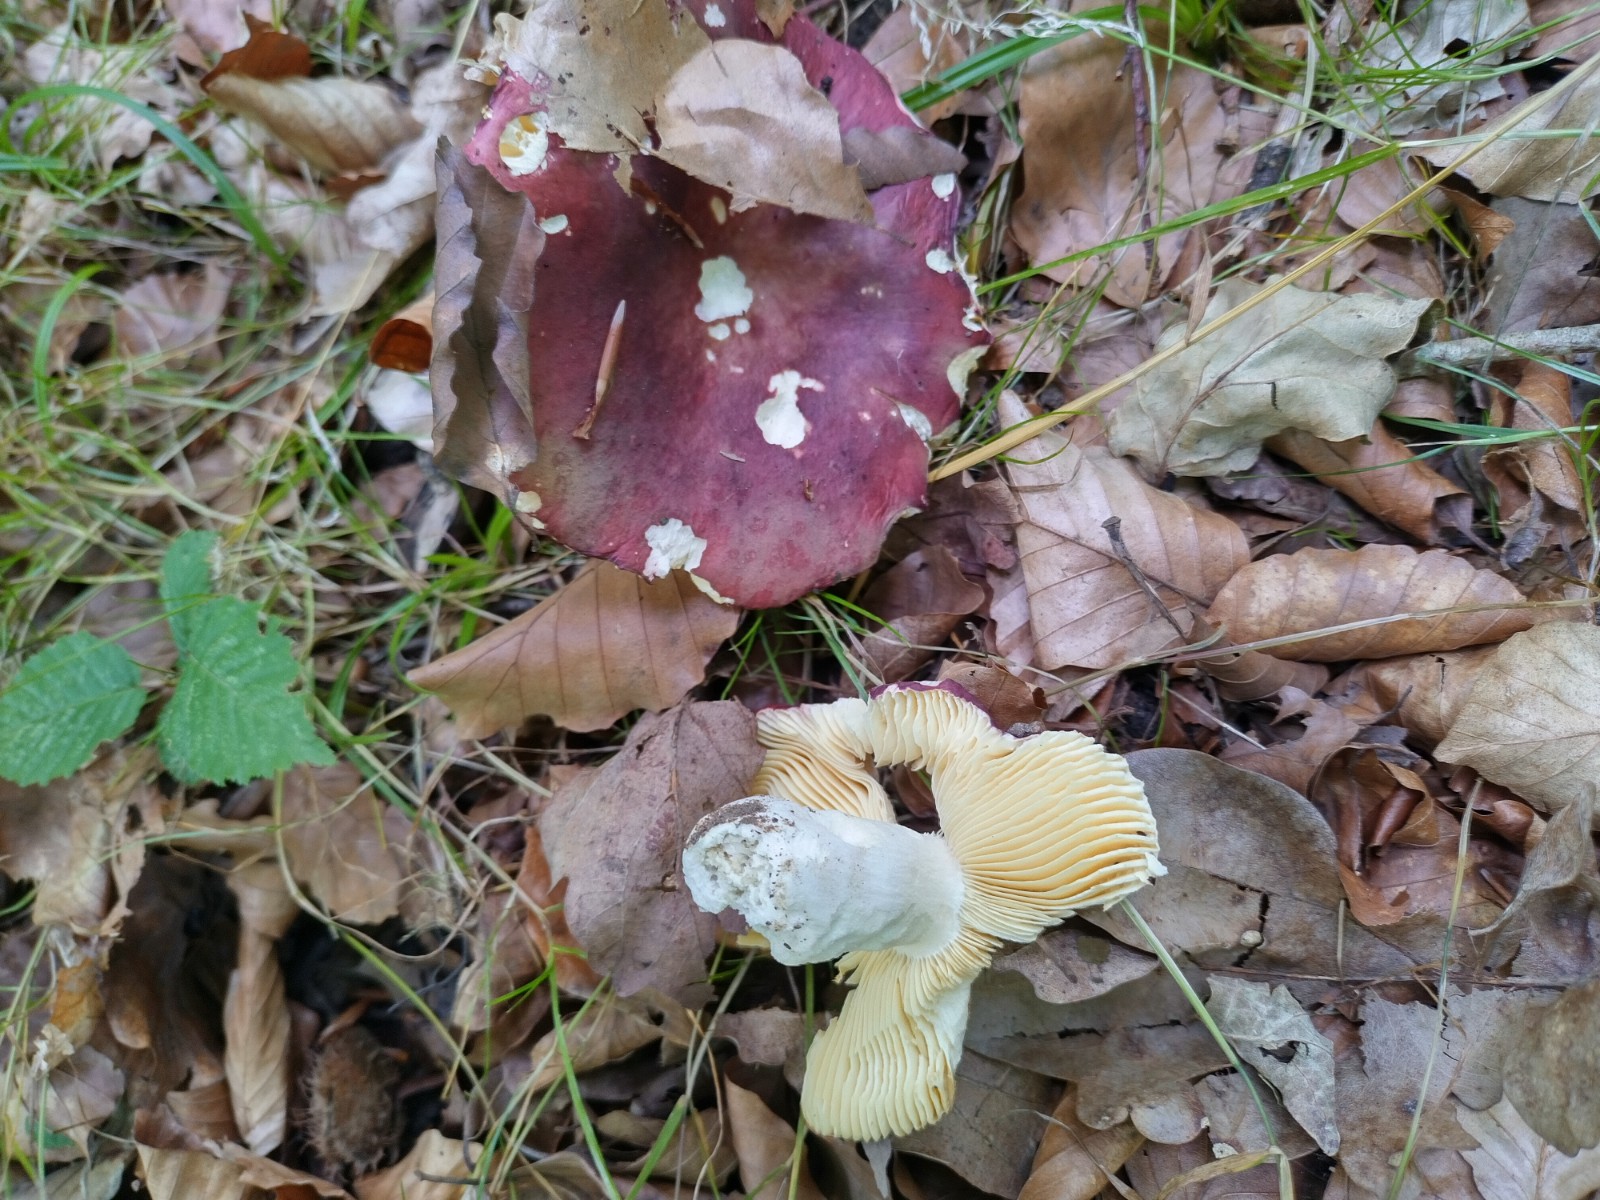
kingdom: Fungi
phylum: Basidiomycota
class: Agaricomycetes
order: Russulales
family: Russulaceae
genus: Russula
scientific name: Russula olivacea
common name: stor skørhat
